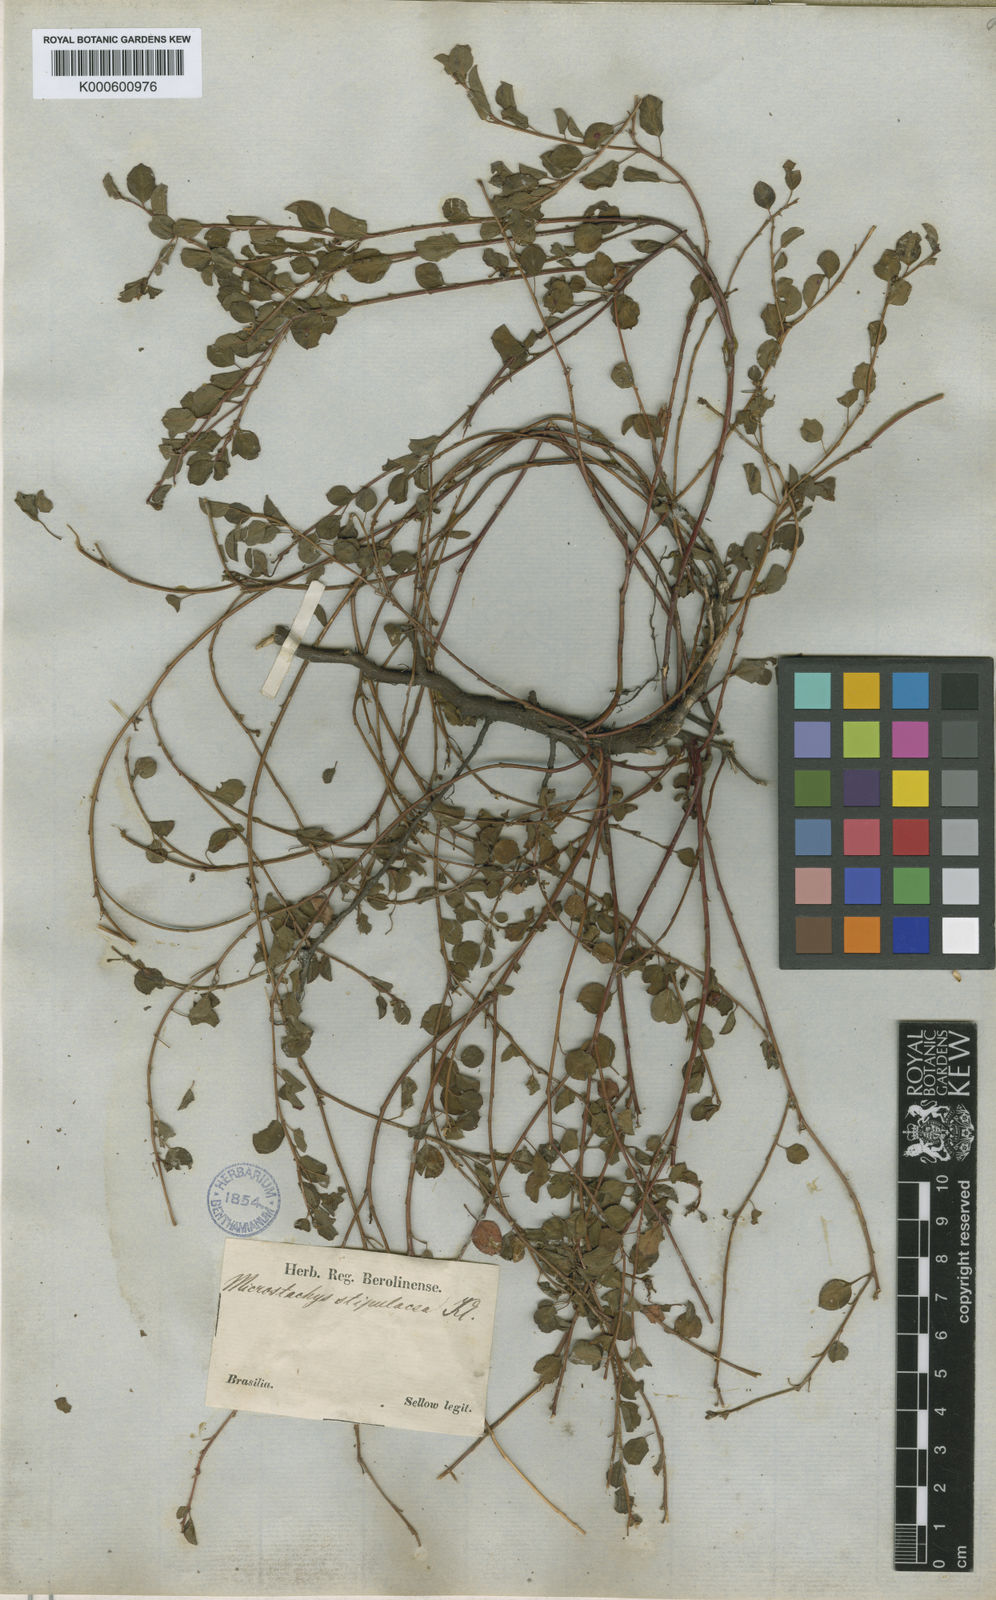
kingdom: Plantae
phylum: Tracheophyta
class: Magnoliopsida
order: Malpighiales
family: Euphorbiaceae
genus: Sebastiania
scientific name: Sebastiania
